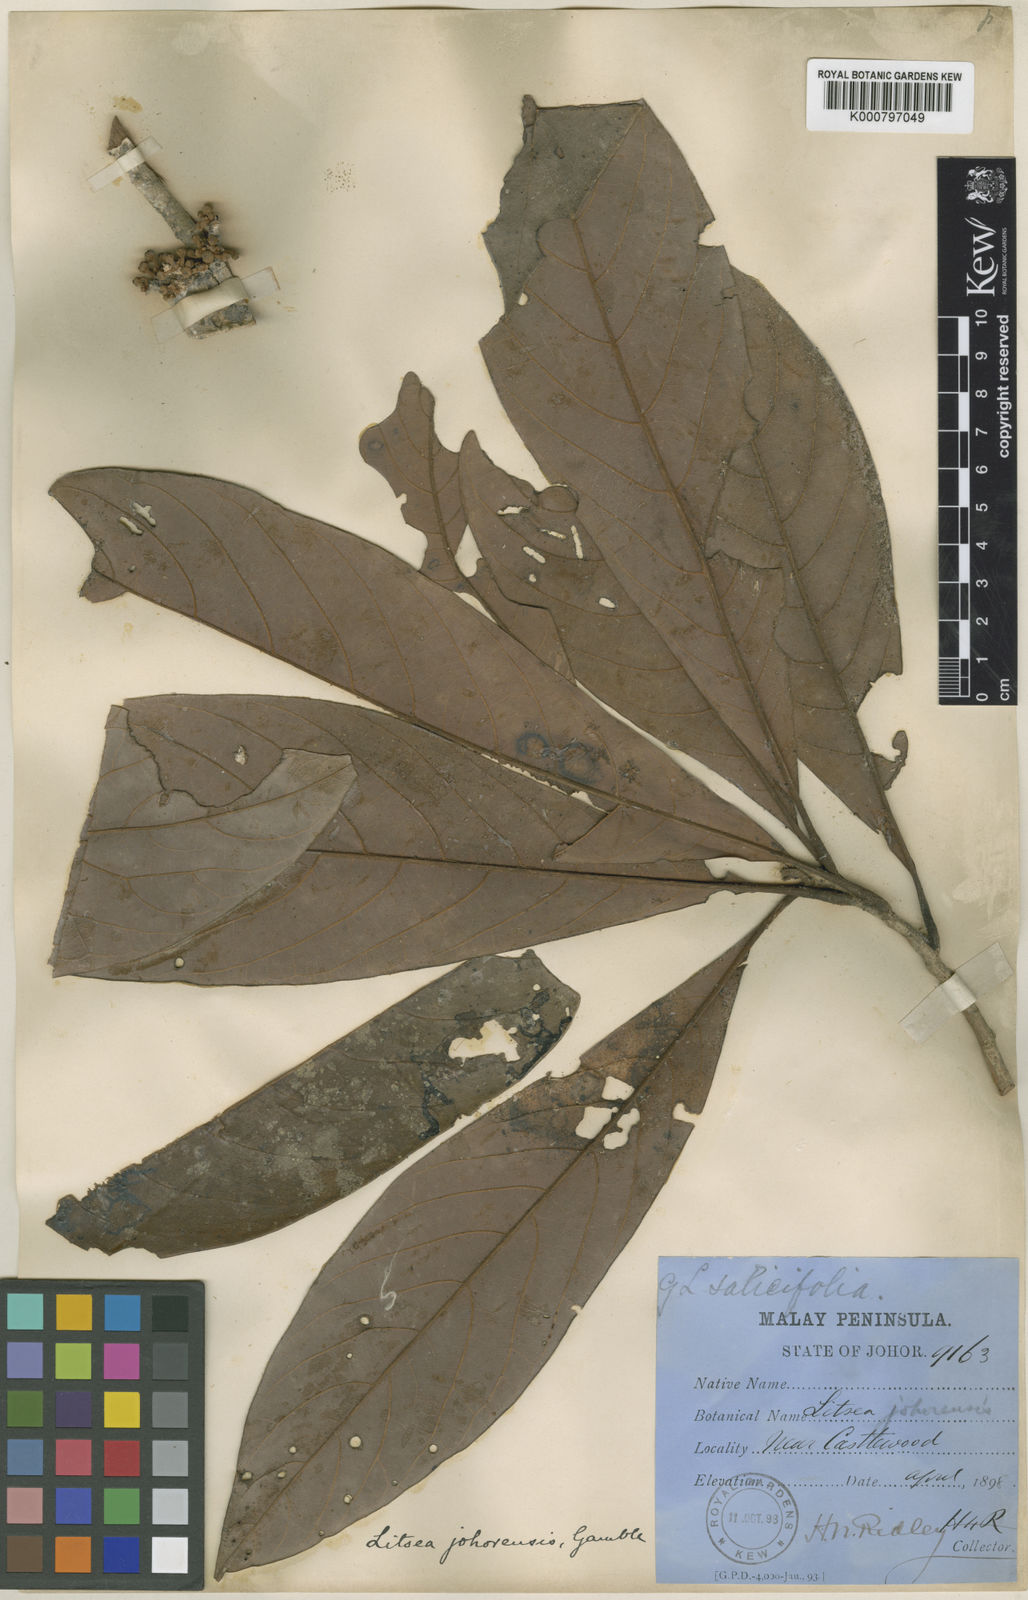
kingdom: Plantae
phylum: Tracheophyta
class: Magnoliopsida
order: Laurales
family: Lauraceae
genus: Litsea
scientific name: Litsea johorensis
